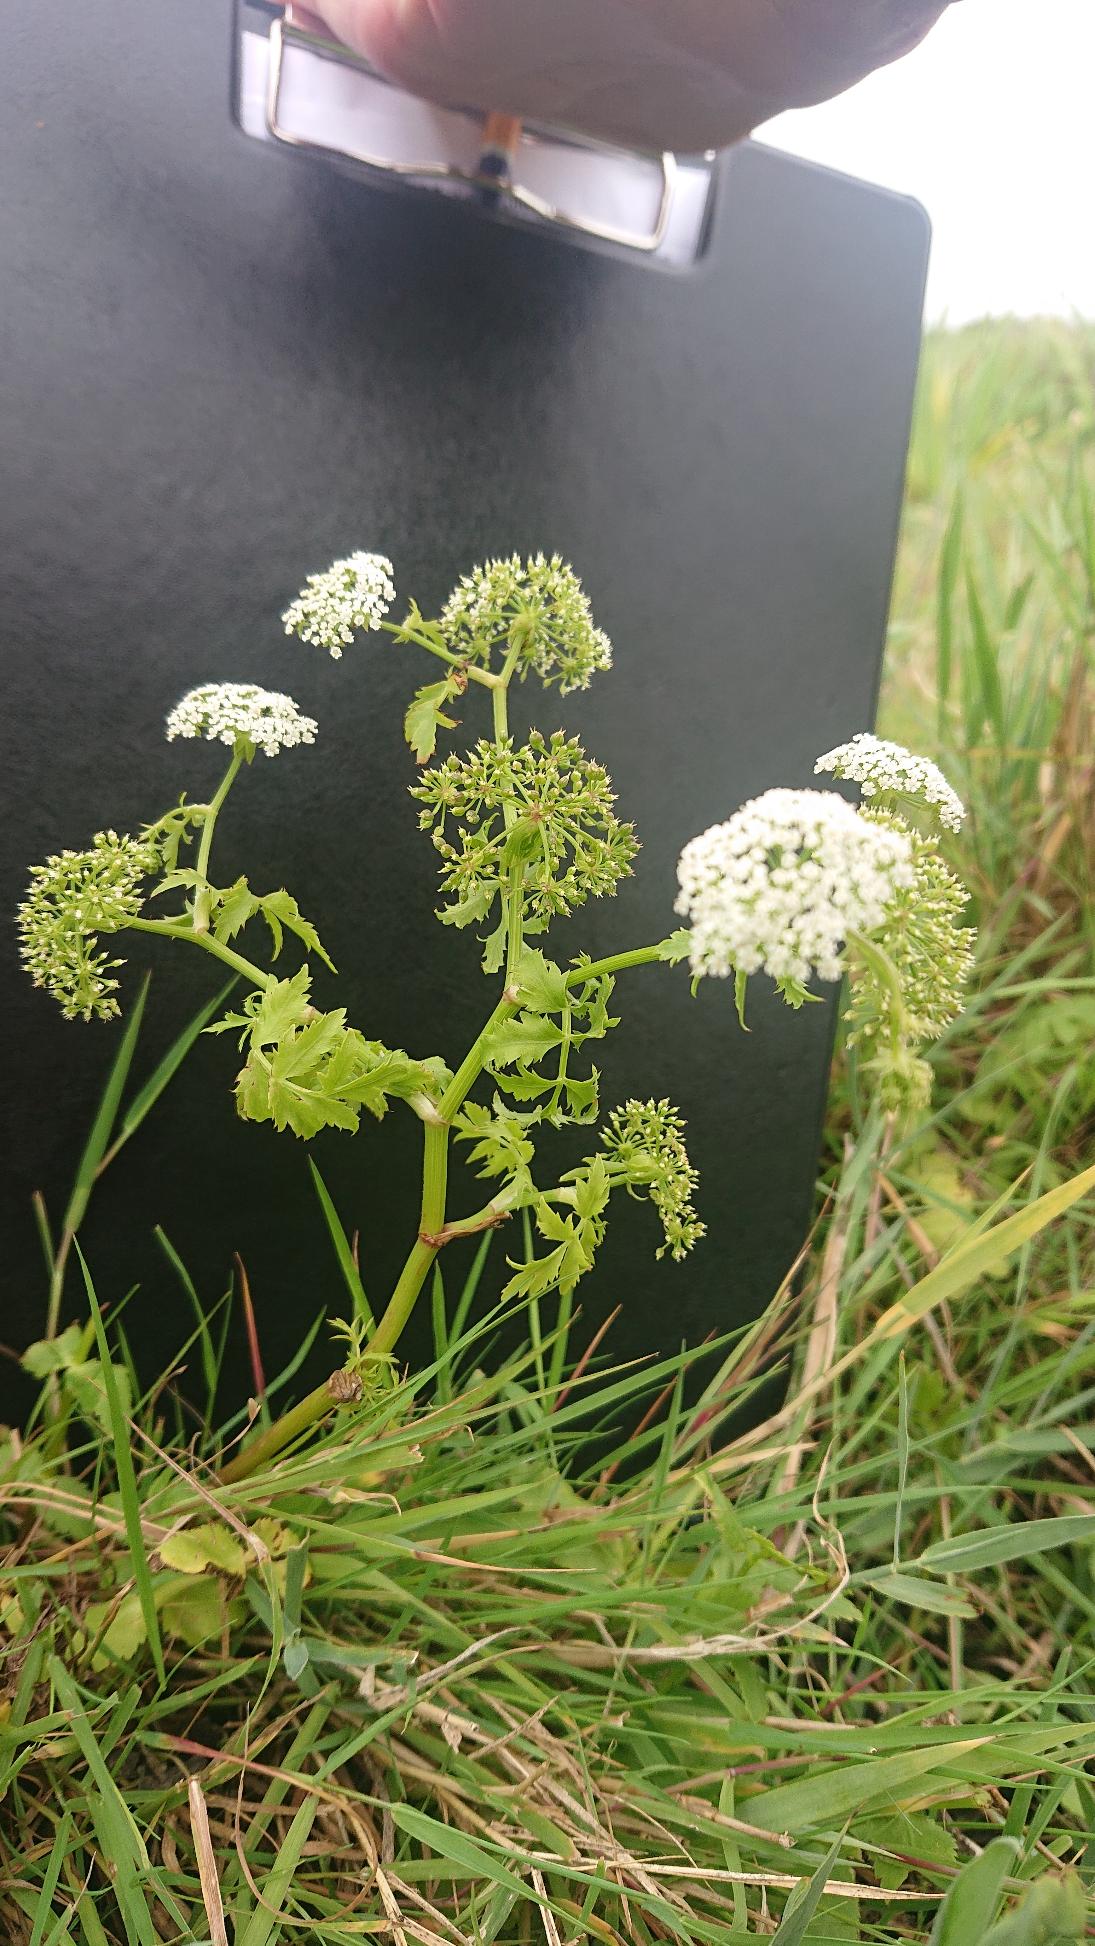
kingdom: Plantae
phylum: Tracheophyta
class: Magnoliopsida
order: Apiales
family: Apiaceae
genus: Berula
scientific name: Berula erecta
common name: Sideskærm
